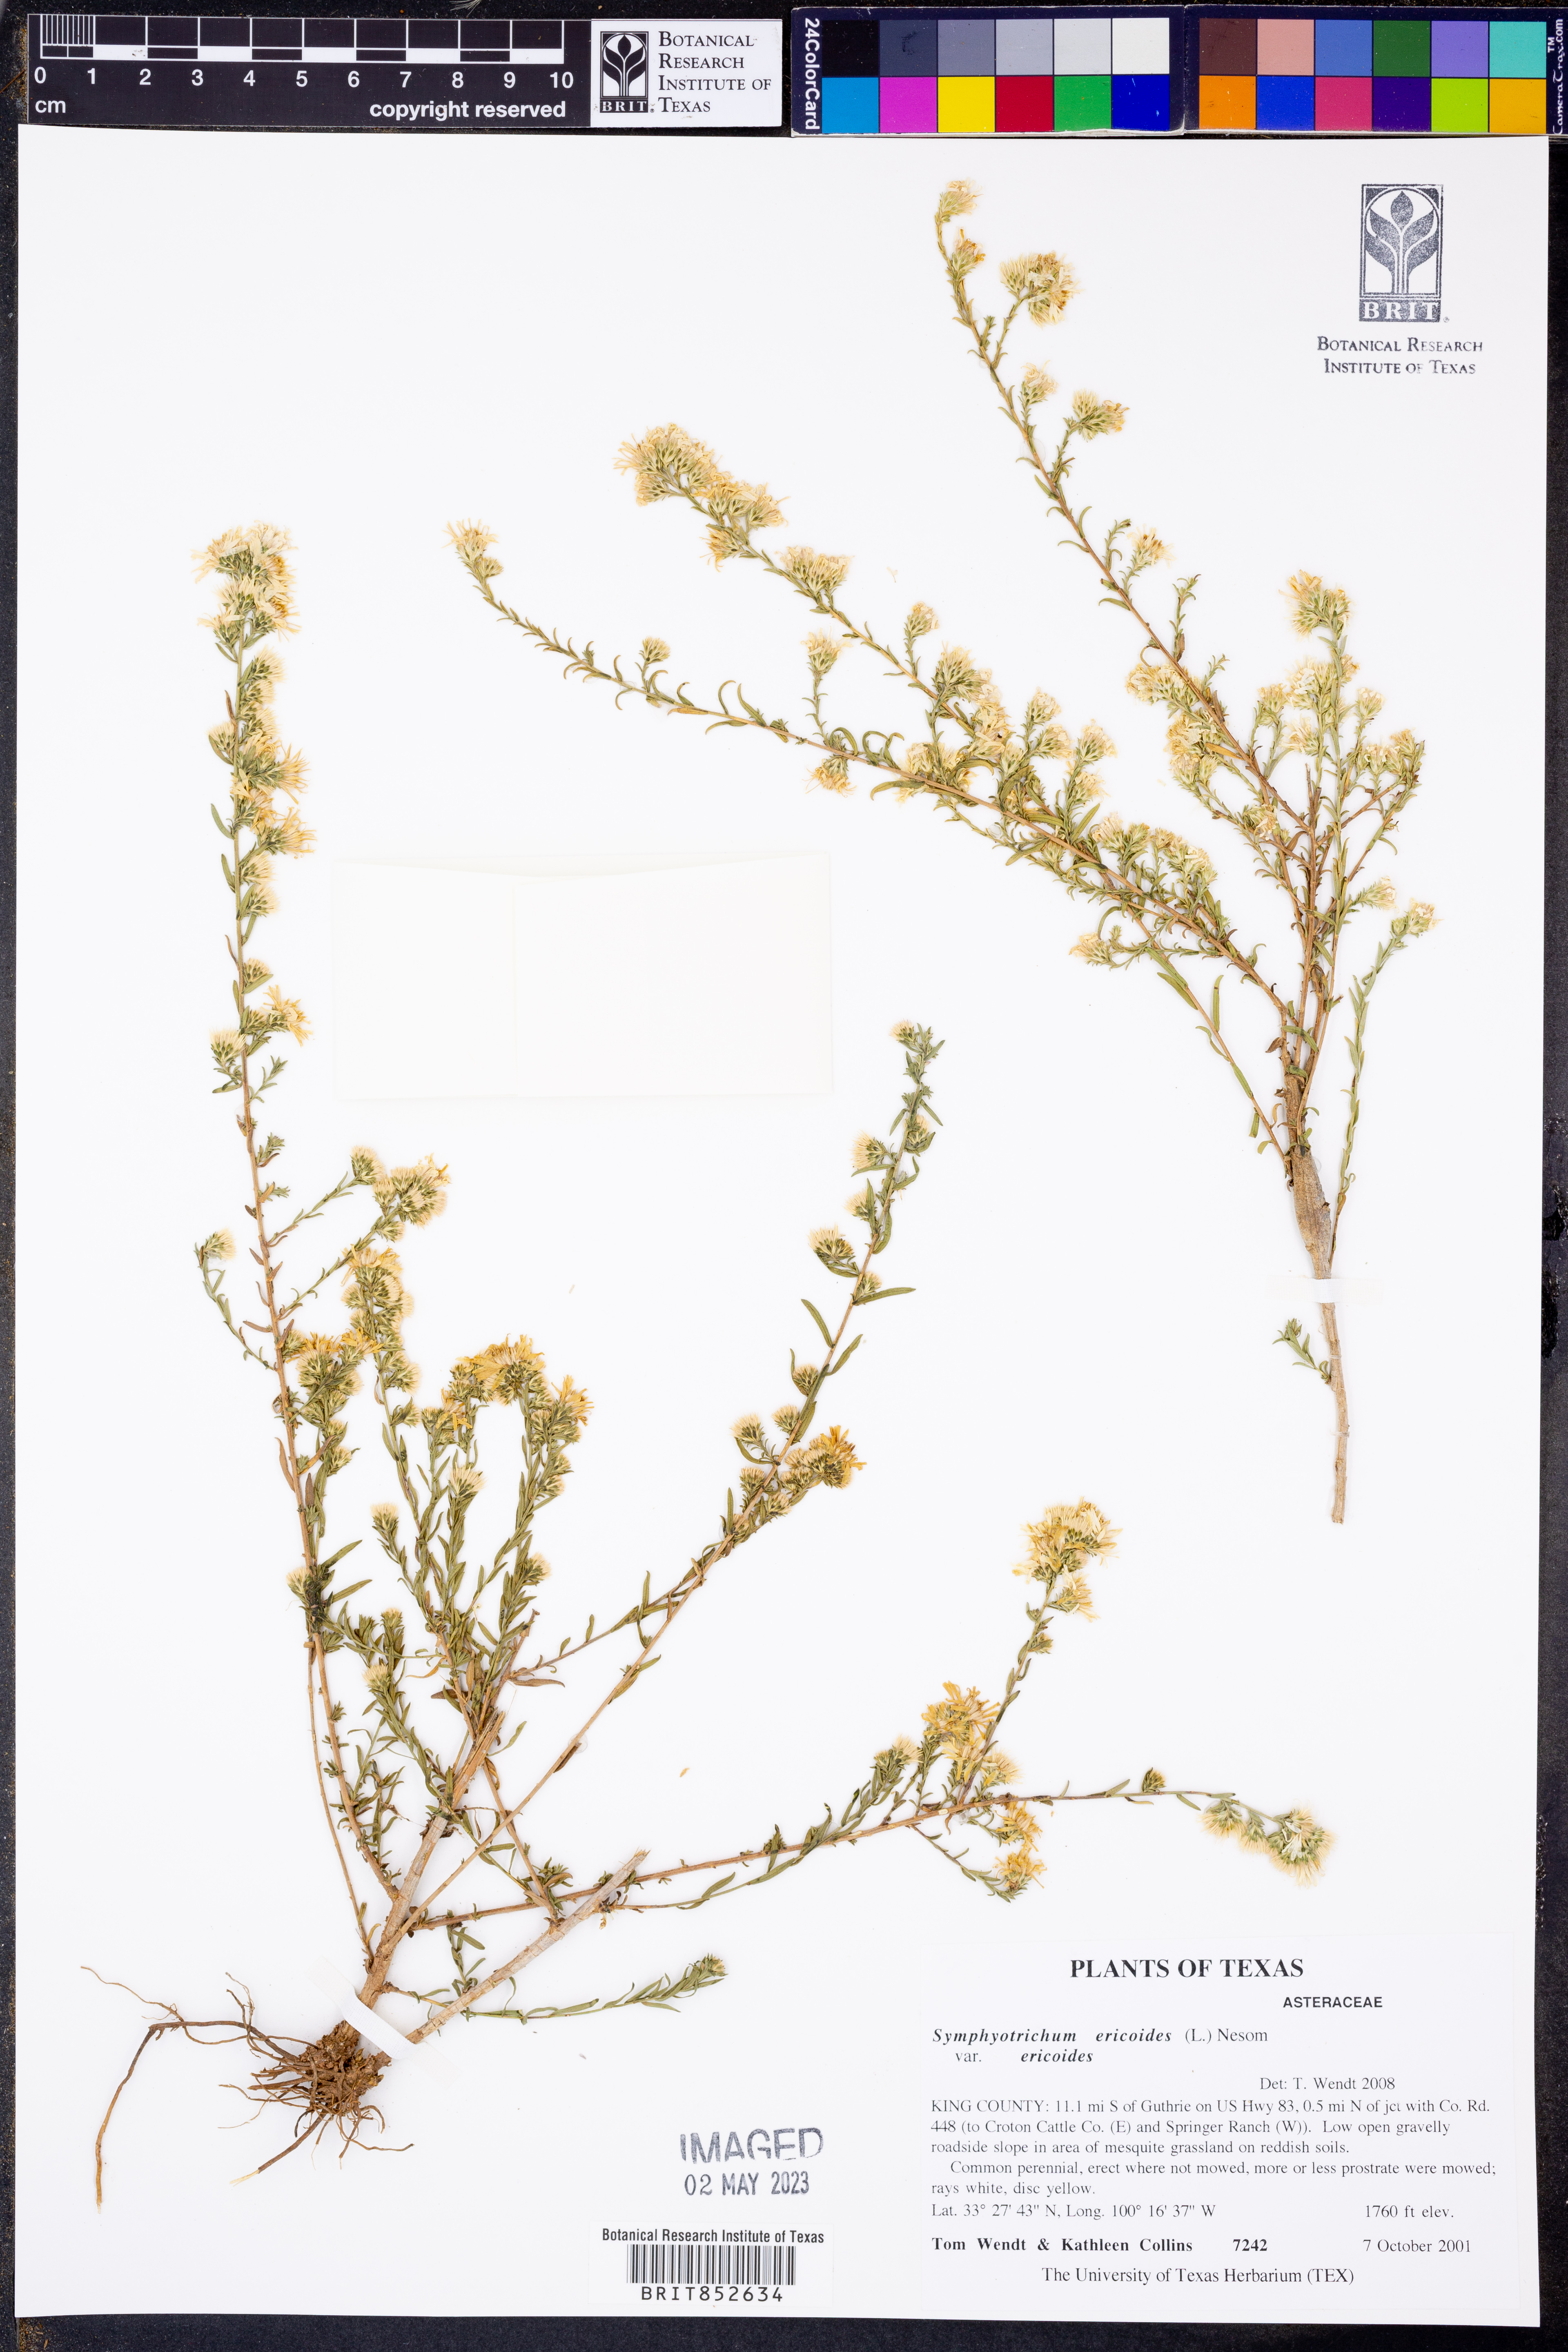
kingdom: Plantae
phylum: Tracheophyta
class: Magnoliopsida
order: Asterales
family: Asteraceae
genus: Symphyotrichum
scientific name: Symphyotrichum ericoides
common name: Heath aster
